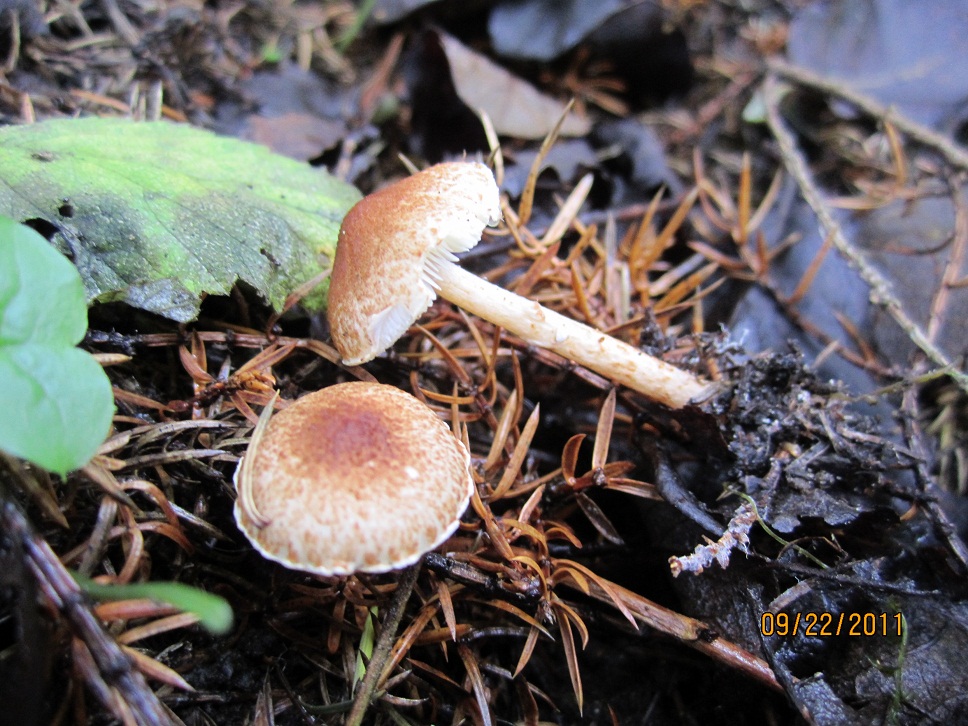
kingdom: Fungi
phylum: Basidiomycota
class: Agaricomycetes
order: Agaricales
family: Agaricaceae
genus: Lepiota
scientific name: Lepiota
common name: parasolhat
